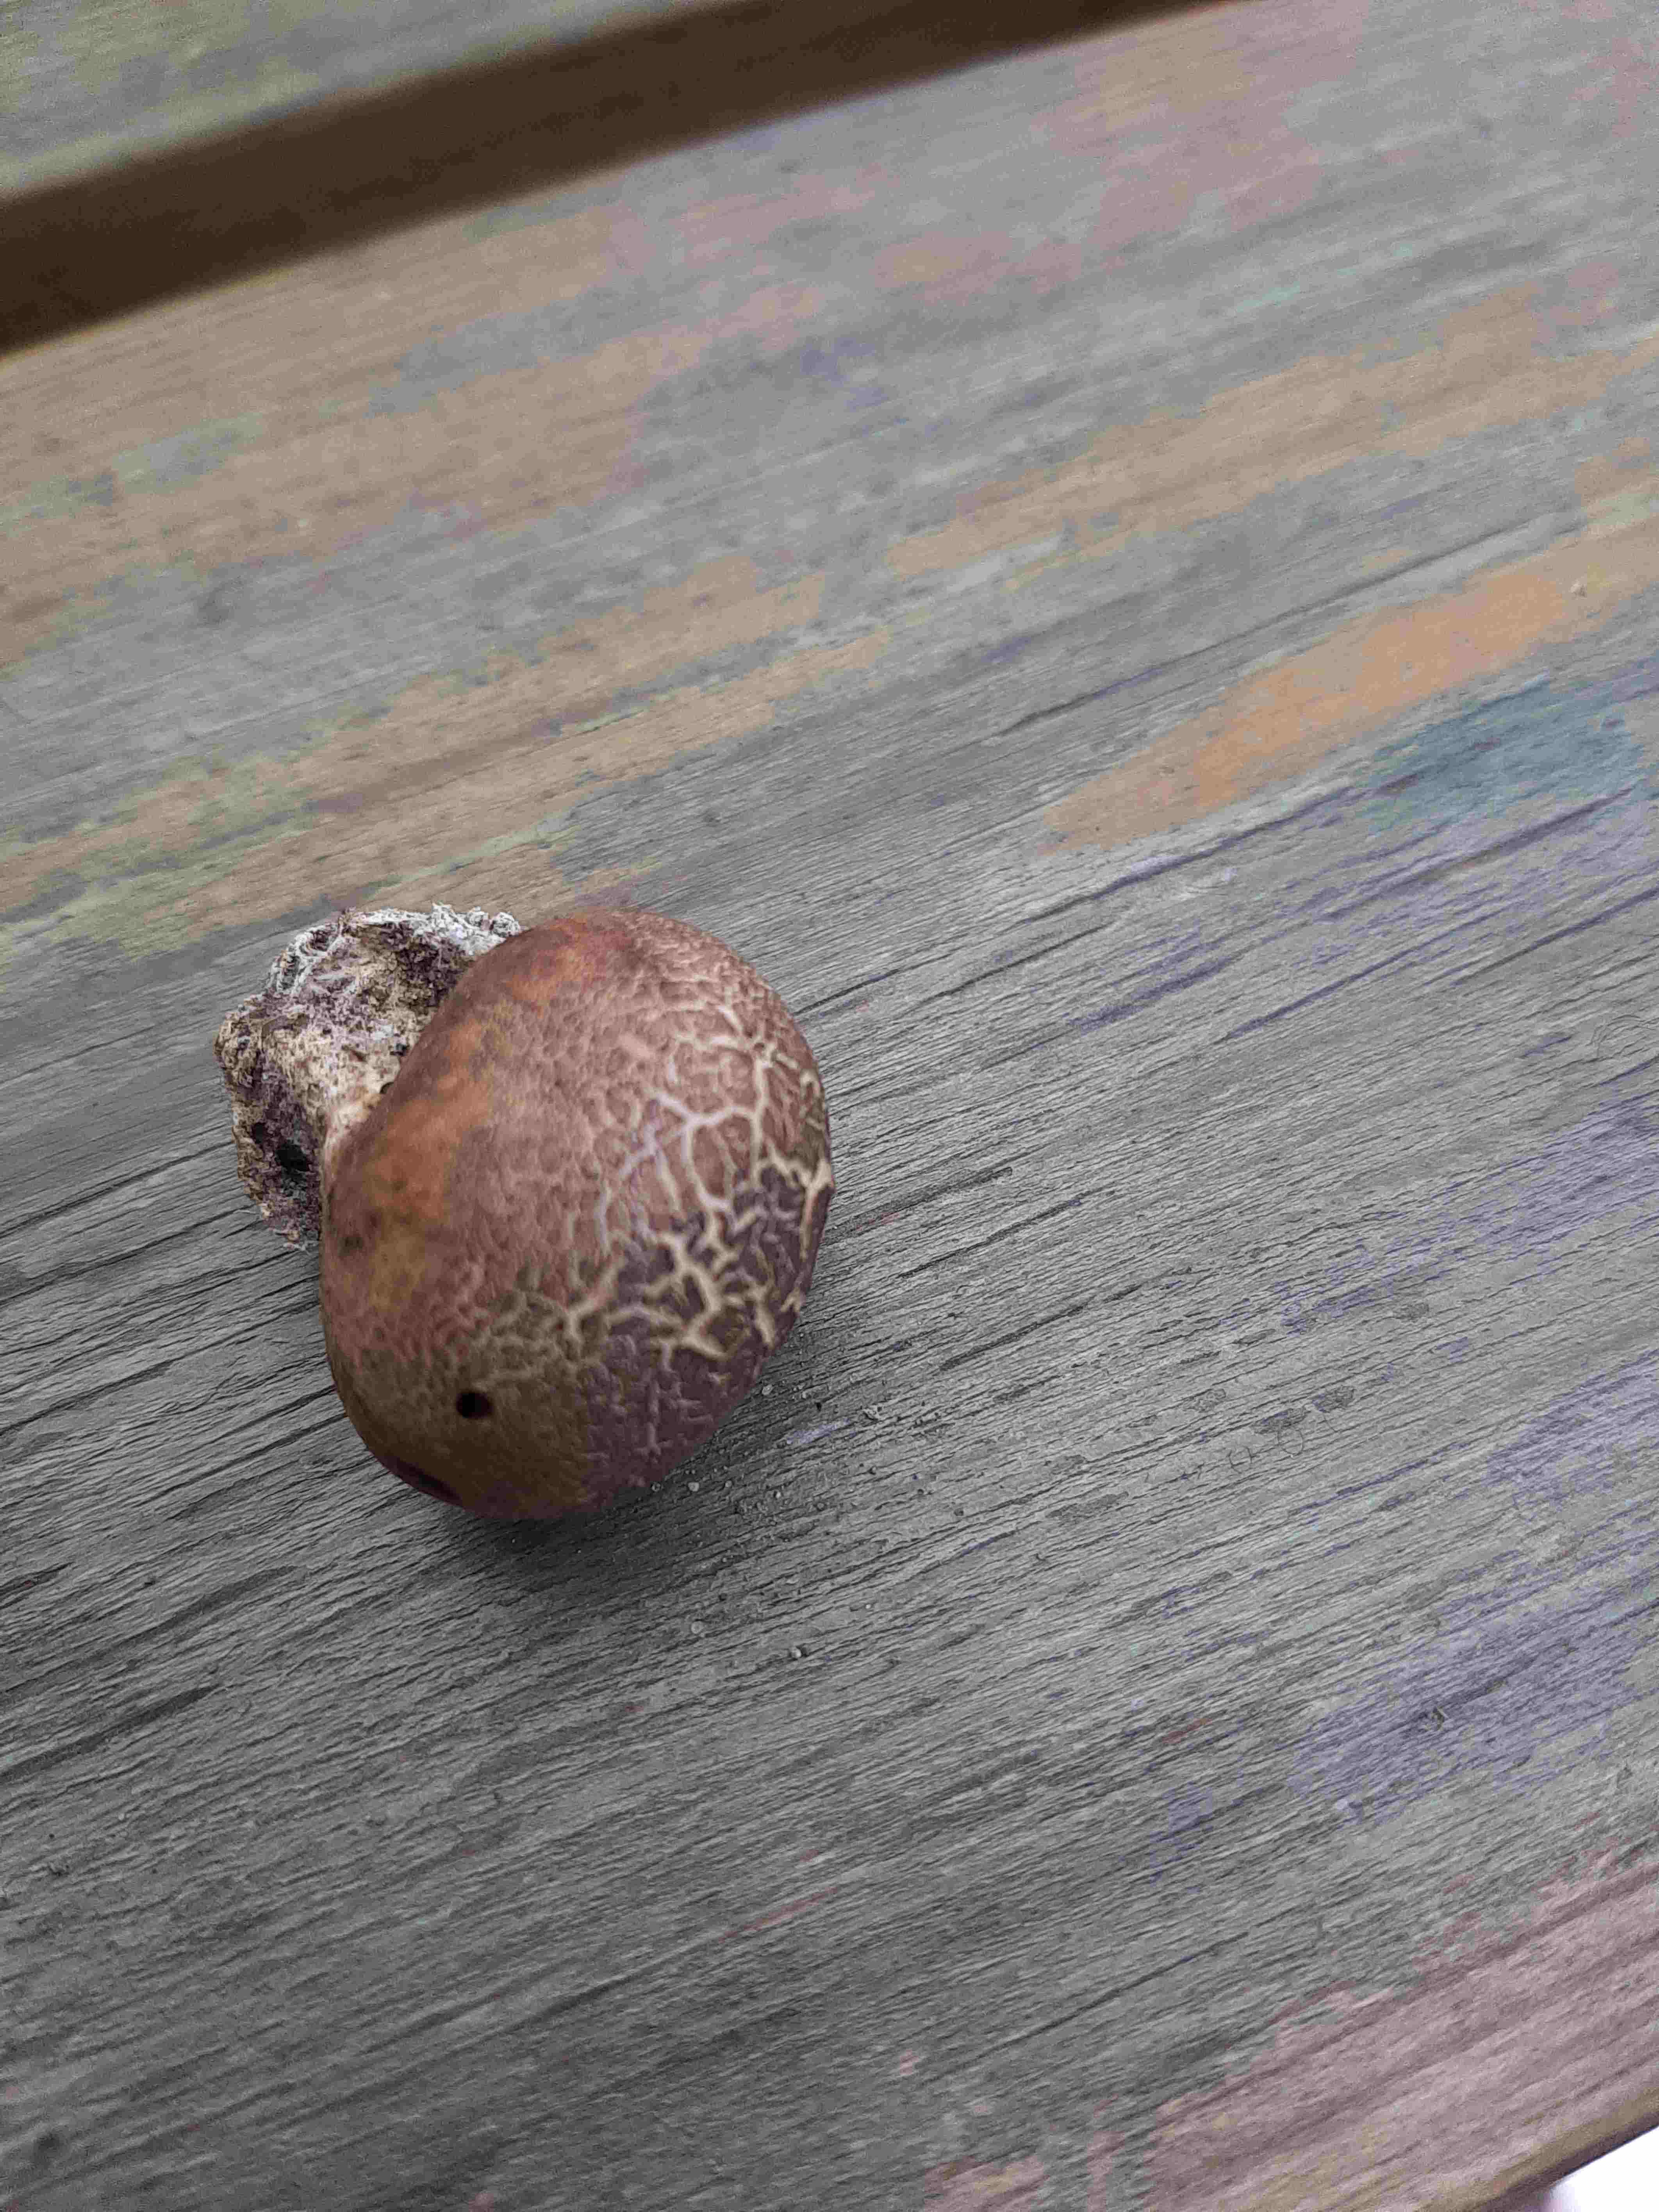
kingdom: Fungi
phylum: Basidiomycota
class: Agaricomycetes
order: Boletales
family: Sclerodermataceae
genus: Scleroderma
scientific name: Scleroderma
